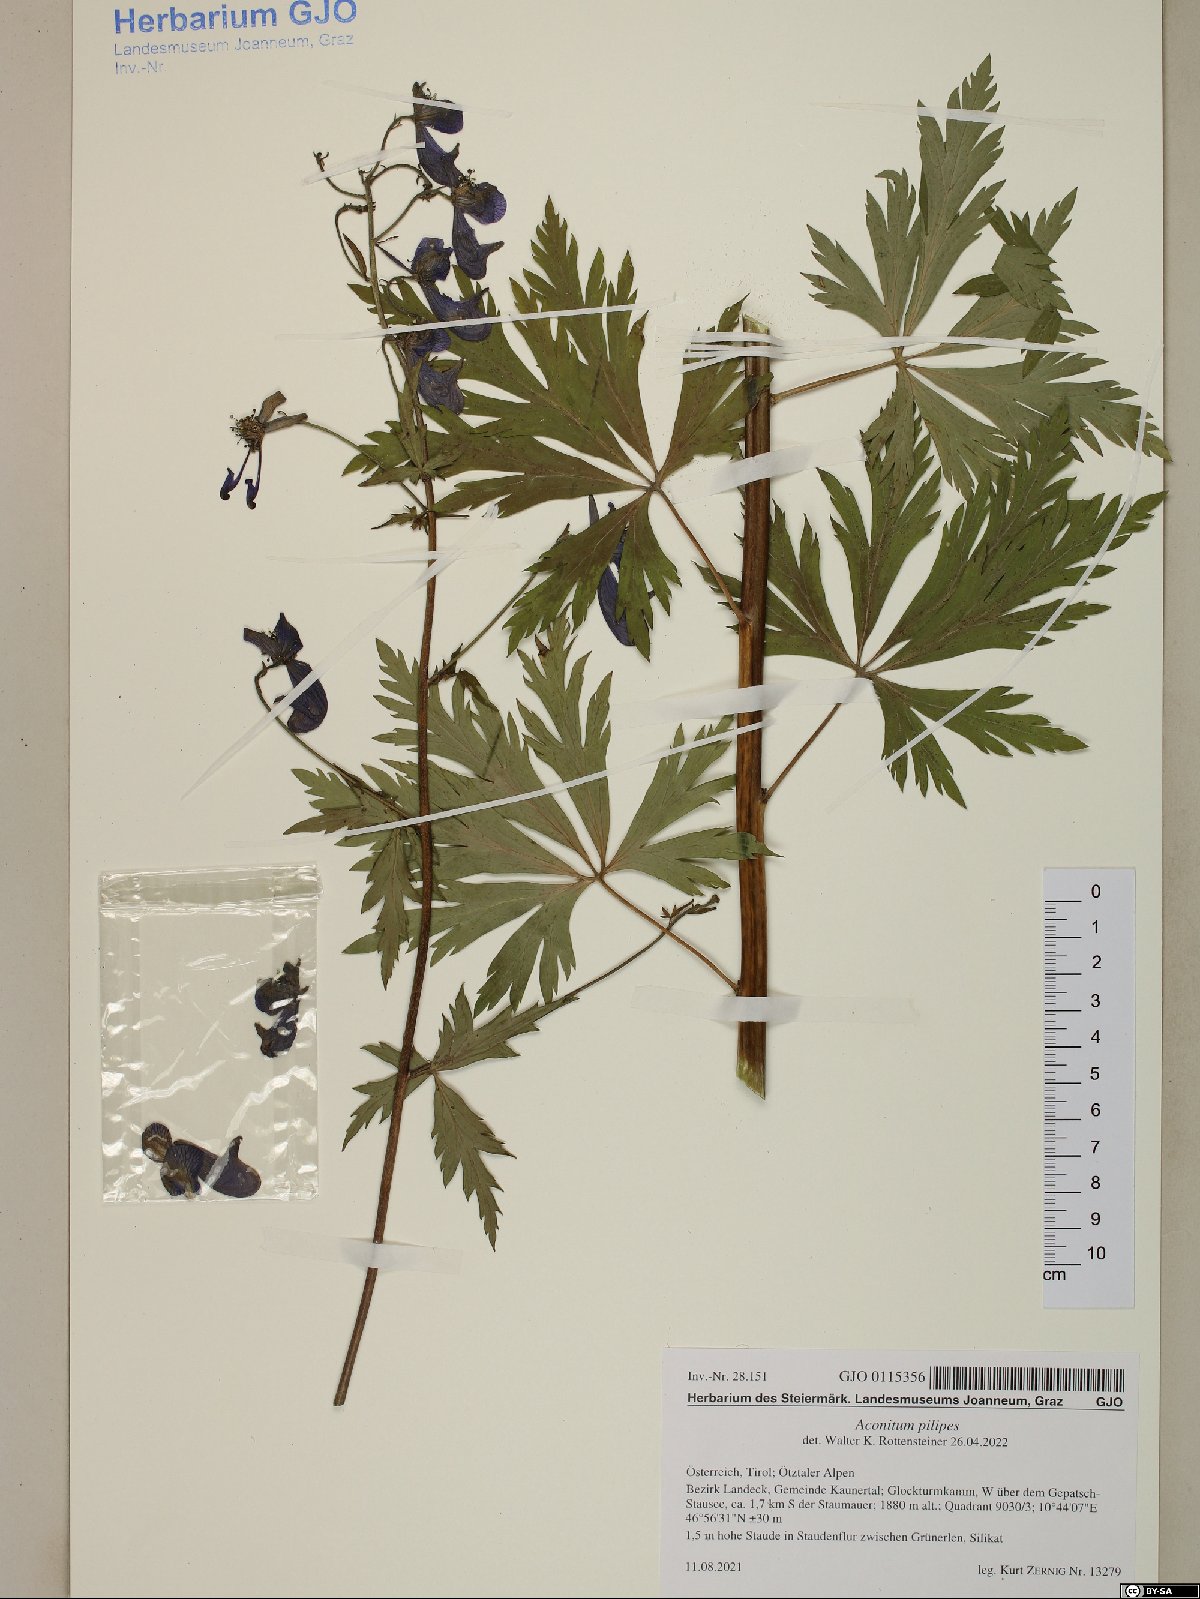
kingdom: Plantae
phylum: Tracheophyta
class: Magnoliopsida
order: Ranunculales
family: Ranunculaceae
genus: Aconitum
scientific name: Aconitum pilipes
